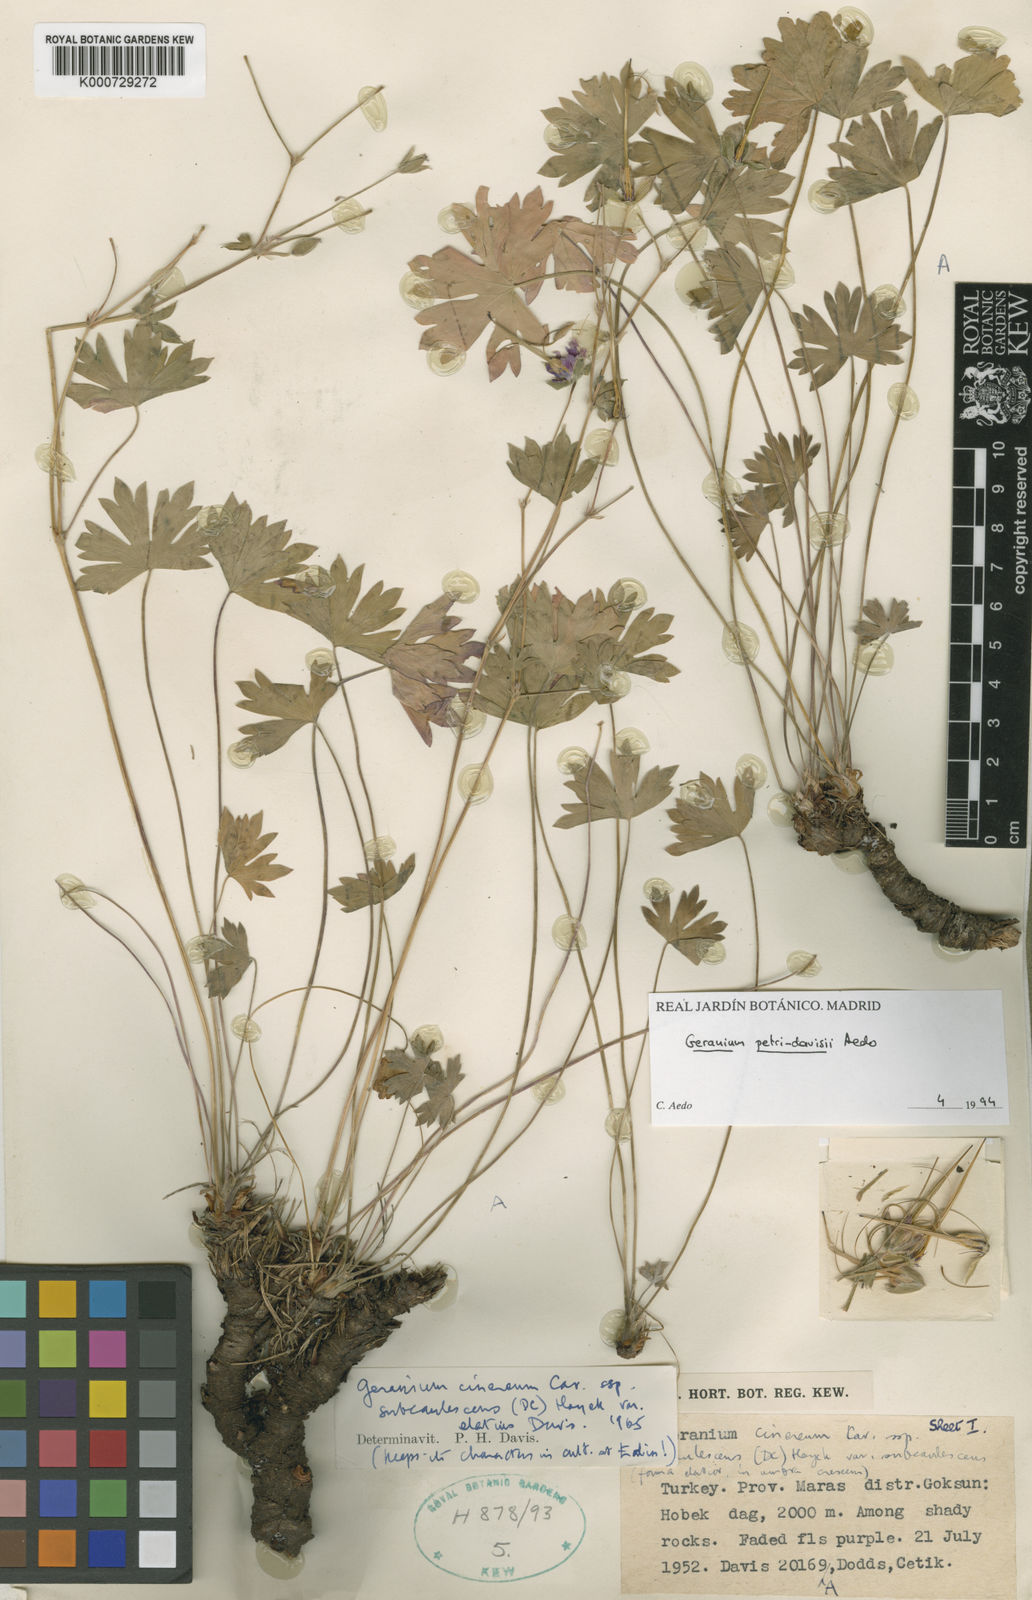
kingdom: Plantae
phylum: Tracheophyta
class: Magnoliopsida
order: Geraniales
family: Geraniaceae
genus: Geranium
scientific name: Geranium petri-davisii
